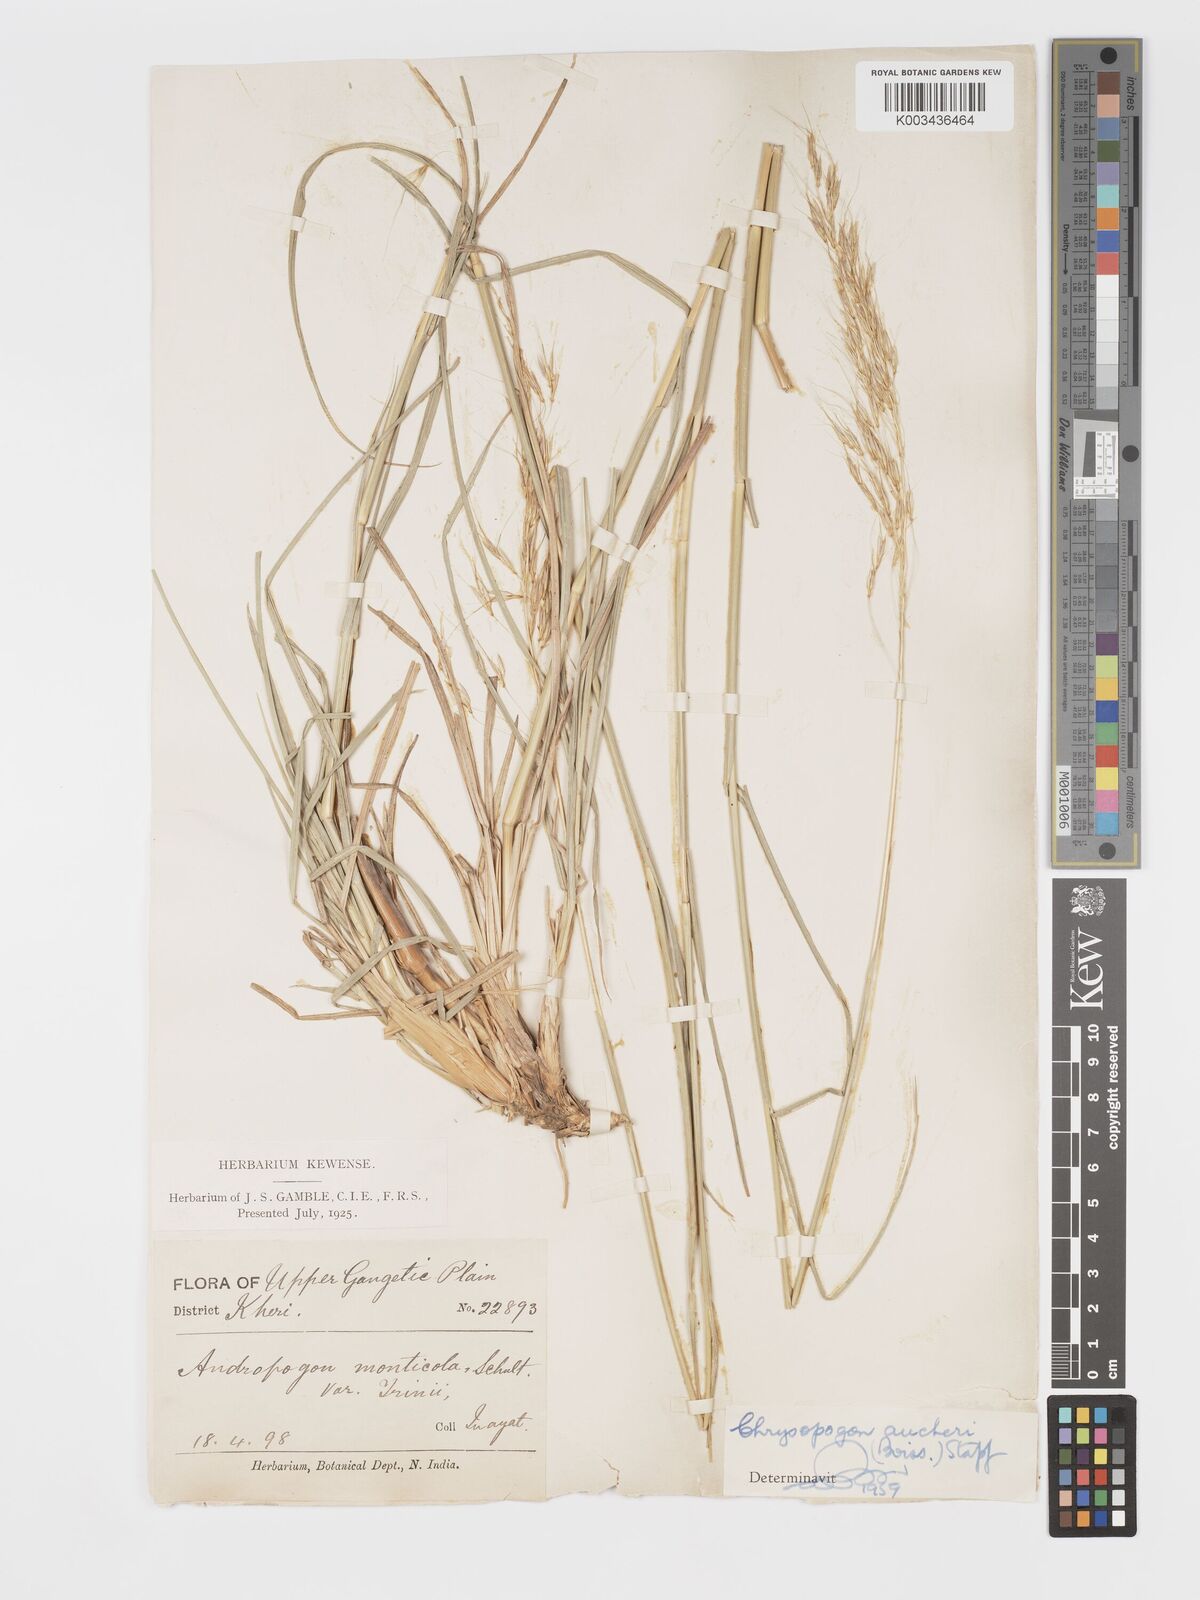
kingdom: Plantae
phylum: Tracheophyta
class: Liliopsida
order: Poales
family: Poaceae
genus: Chrysopogon
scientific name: Chrysopogon aucheri
